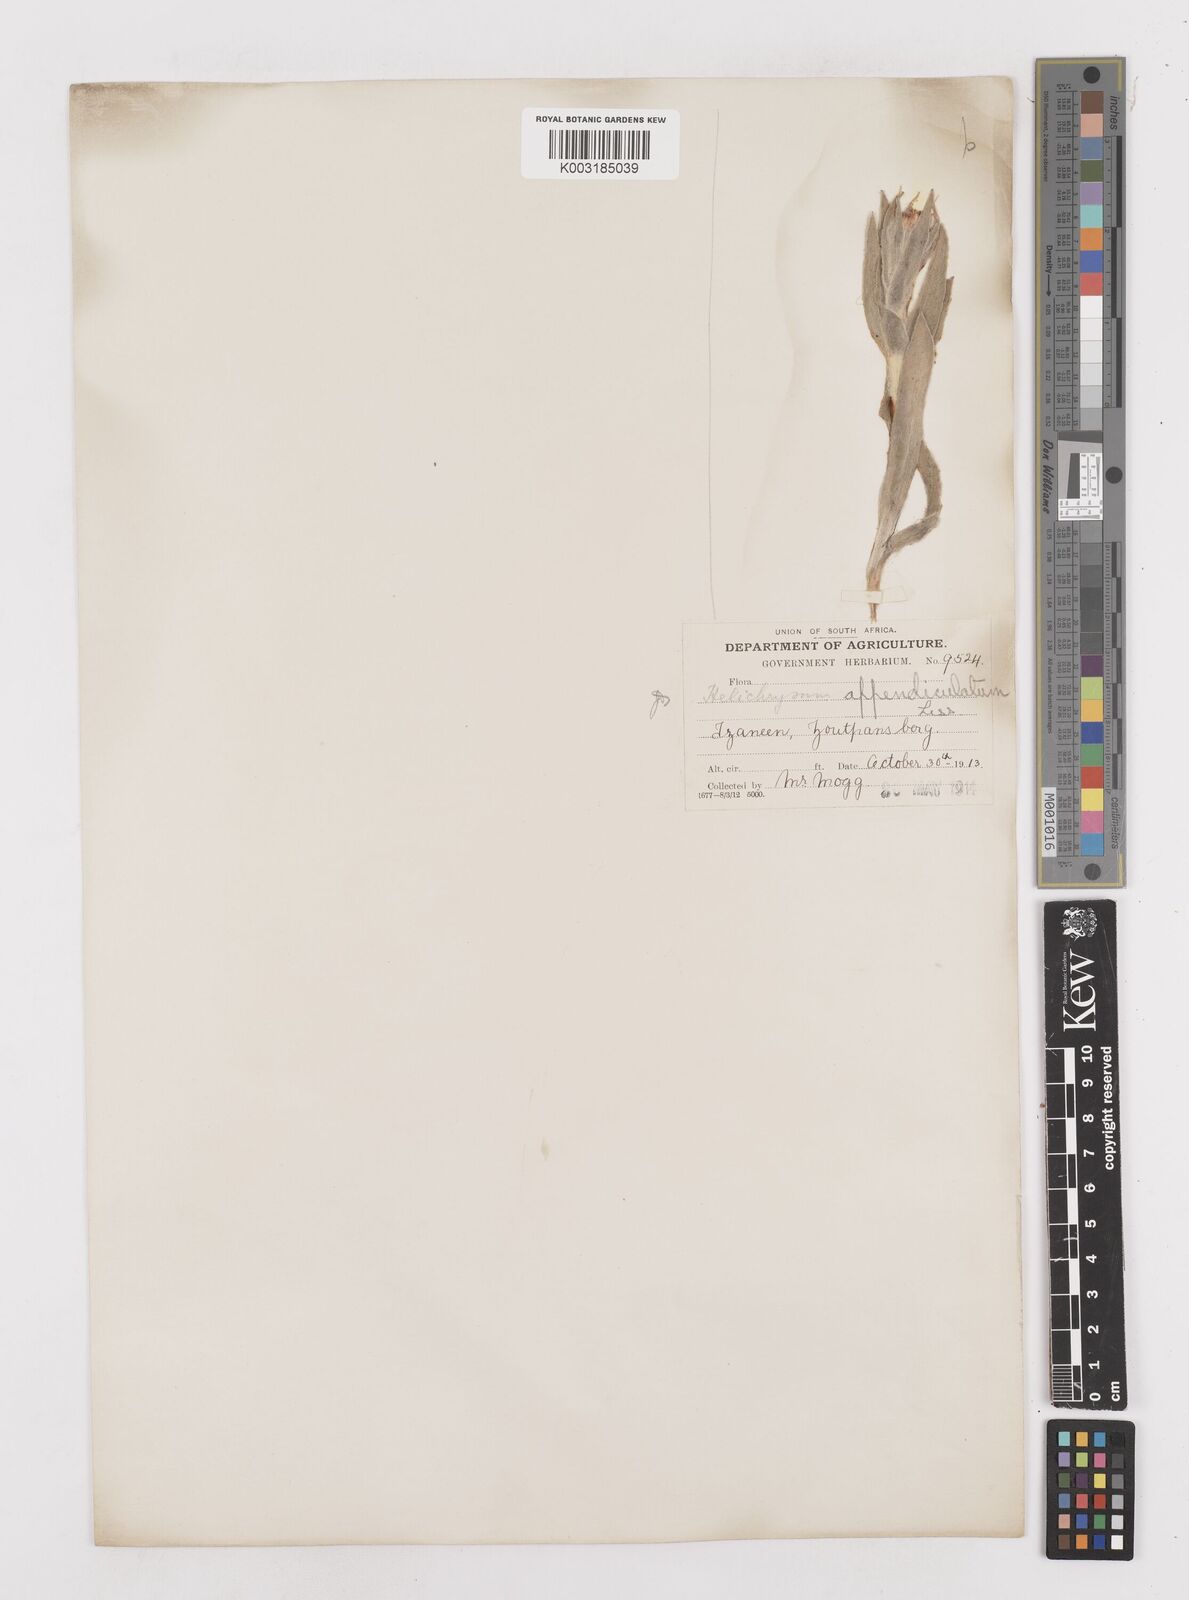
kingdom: Plantae
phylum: Tracheophyta
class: Magnoliopsida
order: Asterales
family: Asteraceae
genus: Helichrysum
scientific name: Helichrysum appendiculatum
